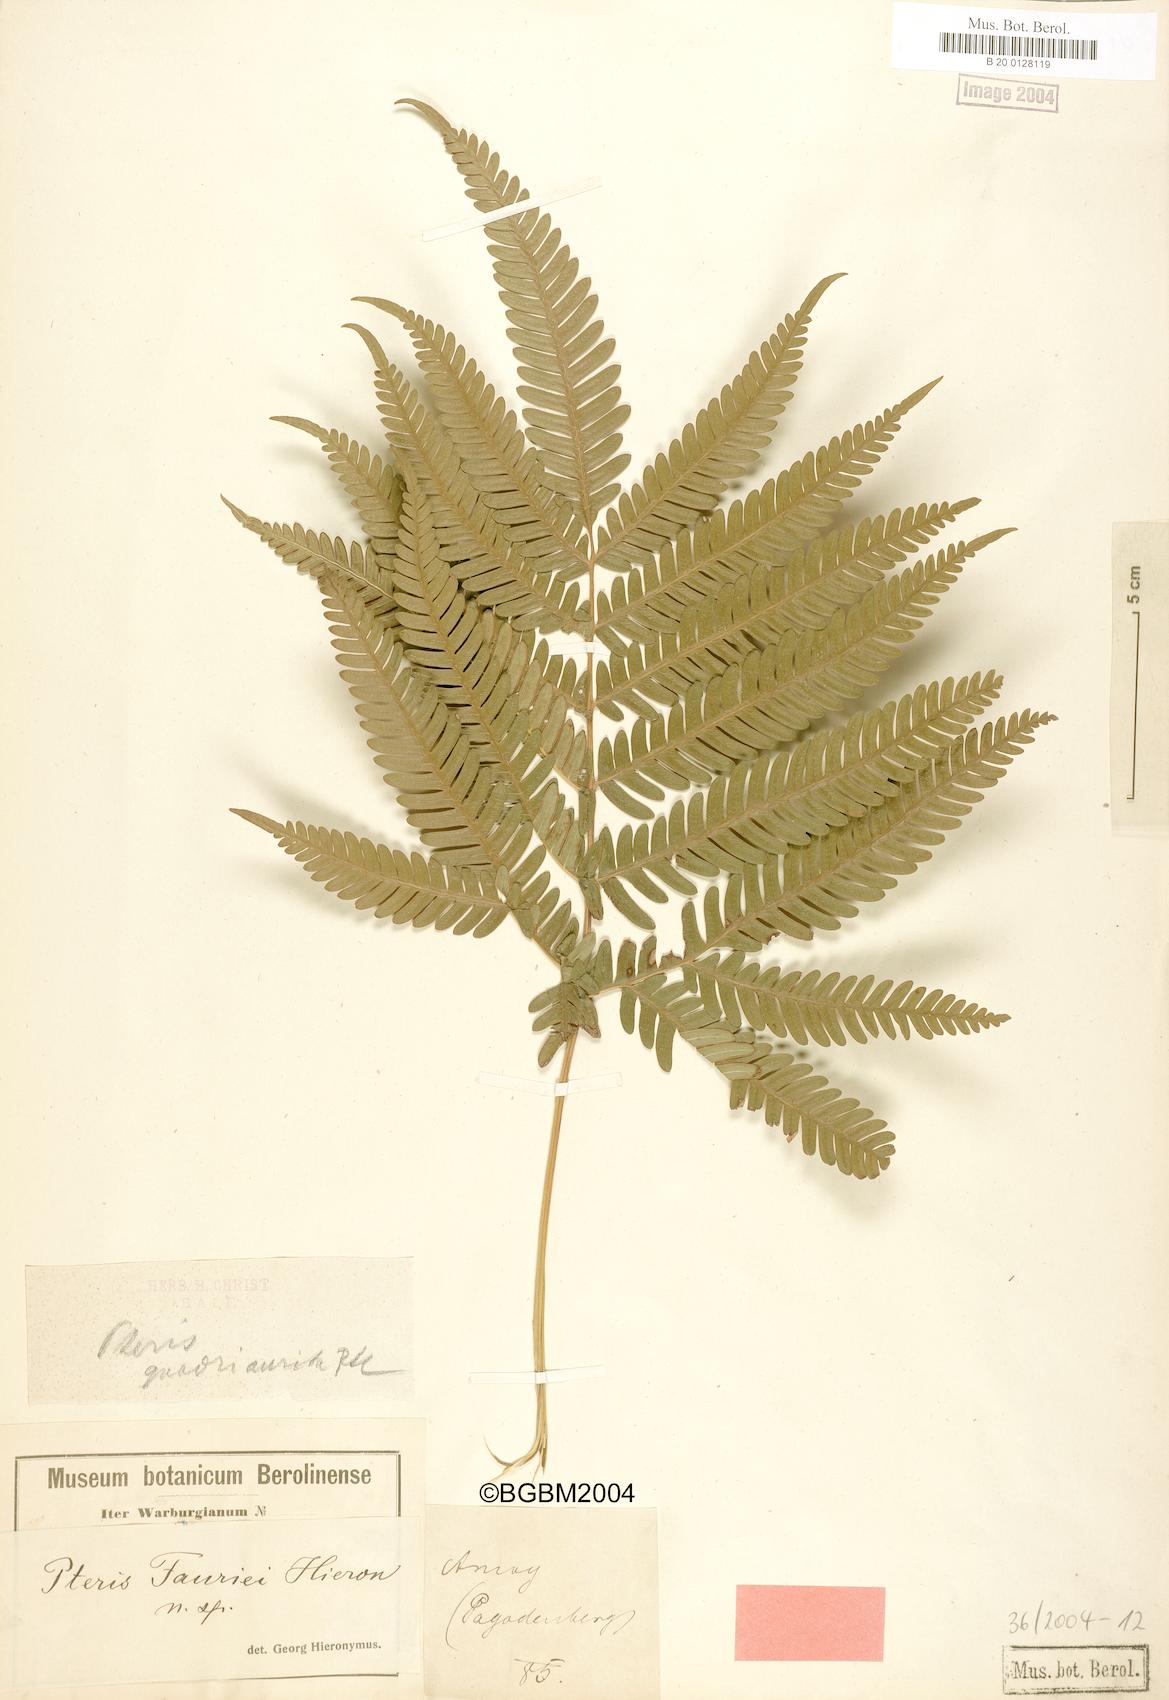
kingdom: Plantae
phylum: Tracheophyta
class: Polypodiopsida
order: Polypodiales
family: Pteridaceae
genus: Pteris
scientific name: Pteris fauriei
